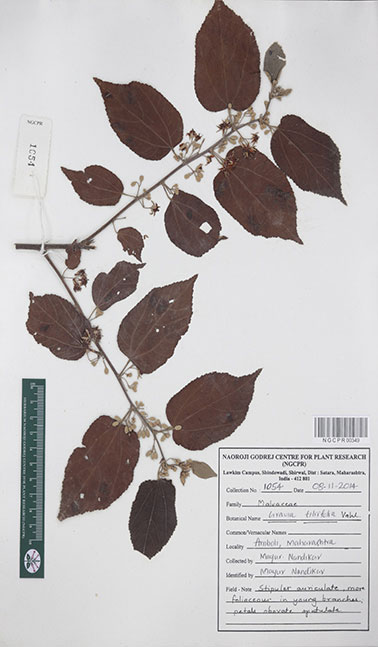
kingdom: Plantae
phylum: Tracheophyta
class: Magnoliopsida
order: Malvales
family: Malvaceae
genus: Grewia
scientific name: Grewia tiliifolia
